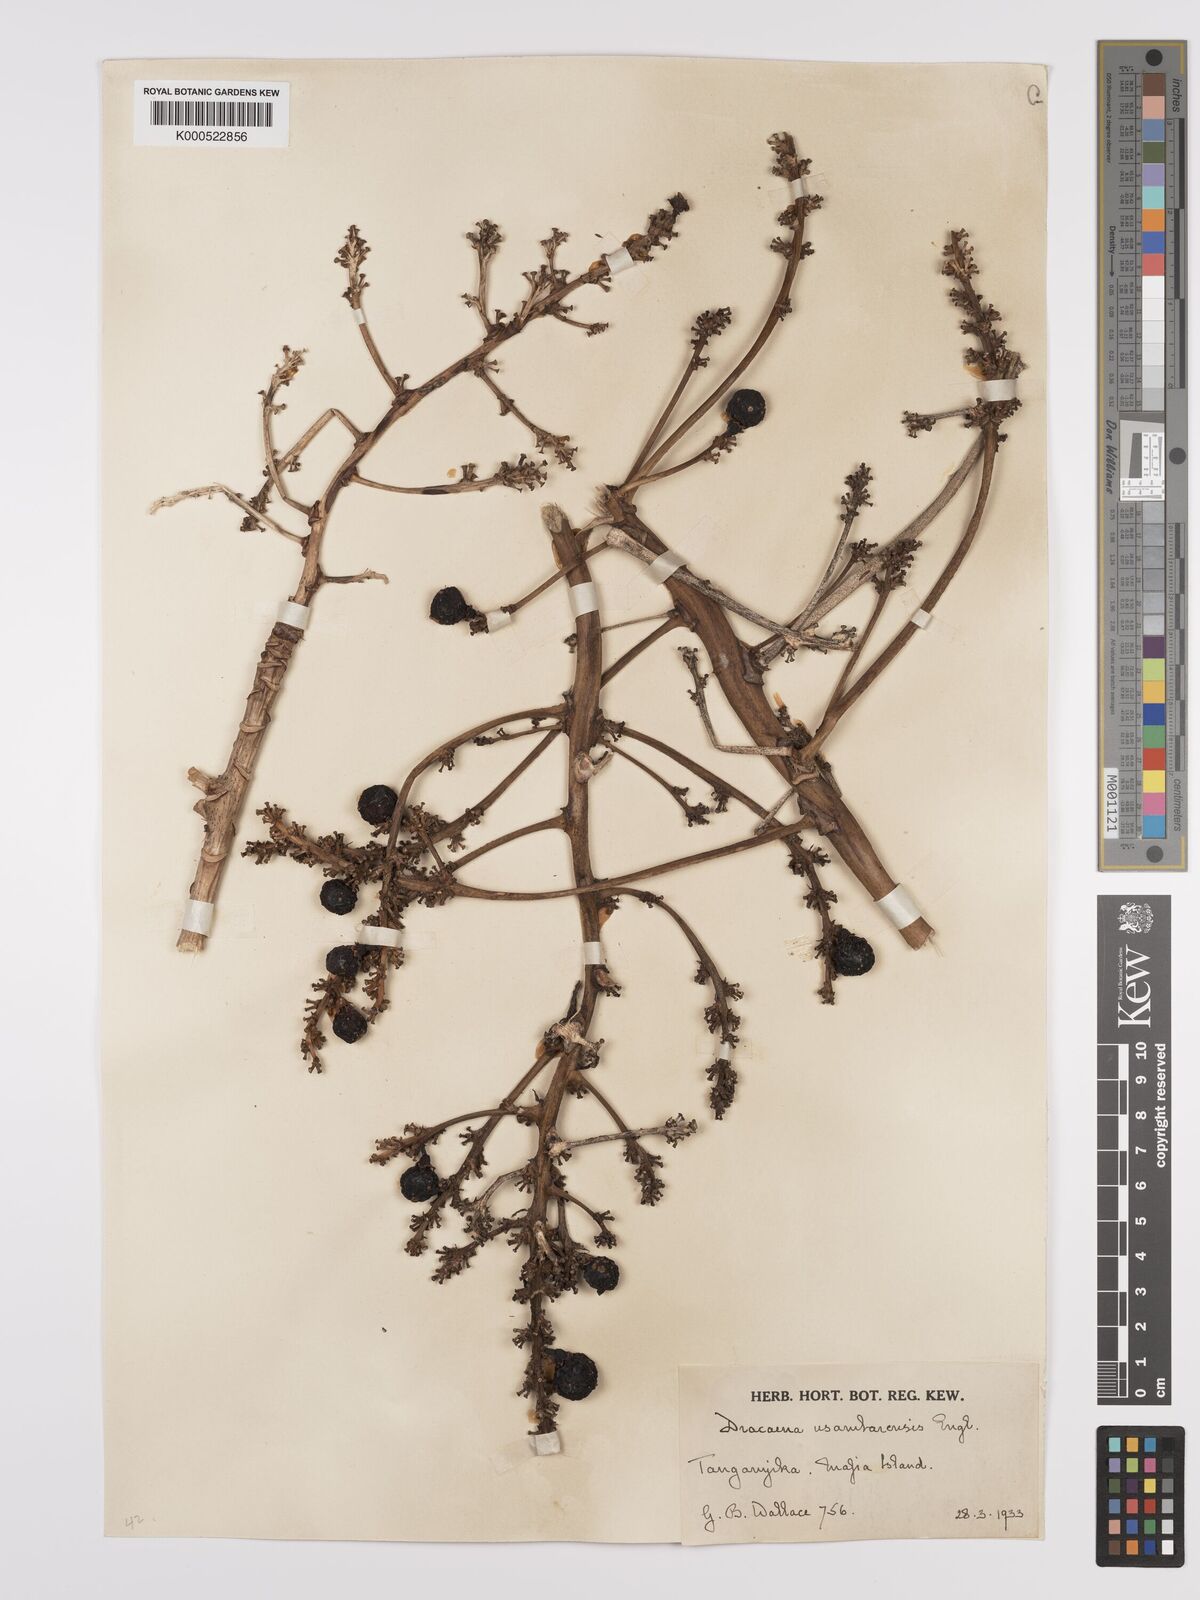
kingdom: Plantae
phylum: Tracheophyta
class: Liliopsida
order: Asparagales
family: Asparagaceae
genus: Dracaena
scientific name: Dracaena usambarensis
